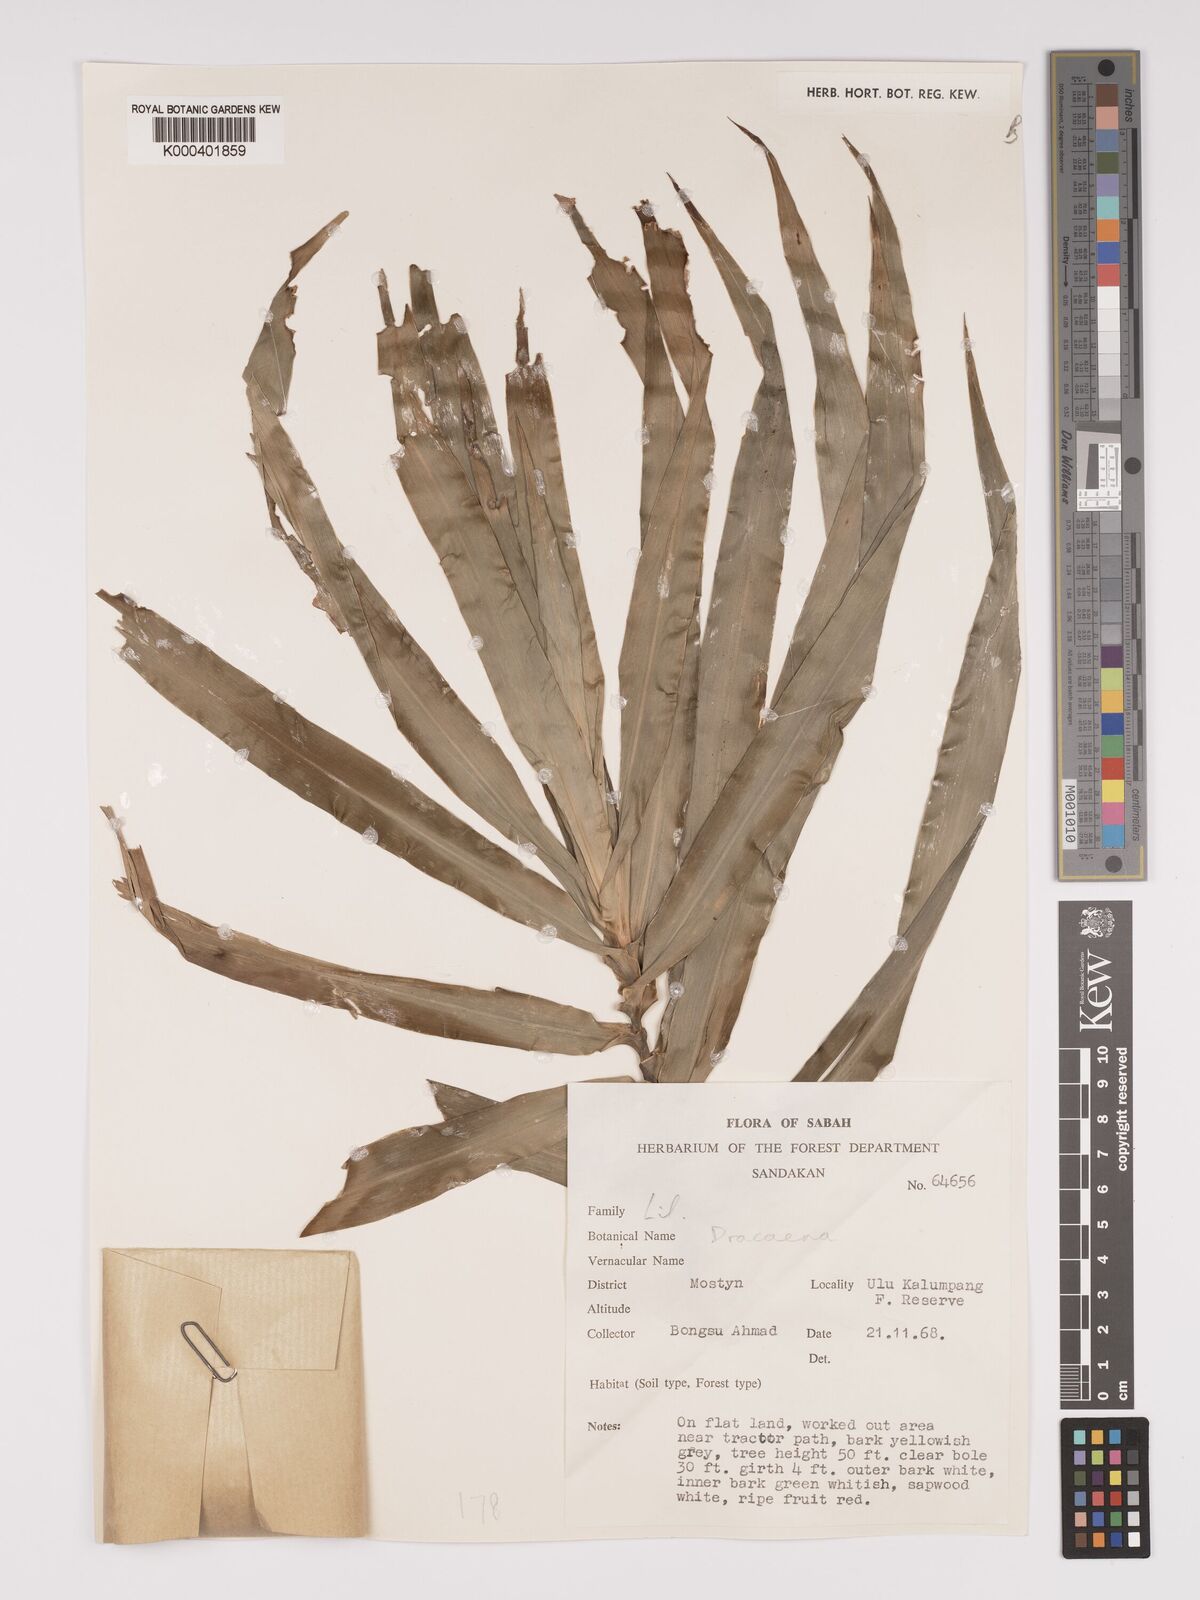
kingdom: Plantae
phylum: Tracheophyta
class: Liliopsida
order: Asparagales
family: Asparagaceae
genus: Dracaena
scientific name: Dracaena
